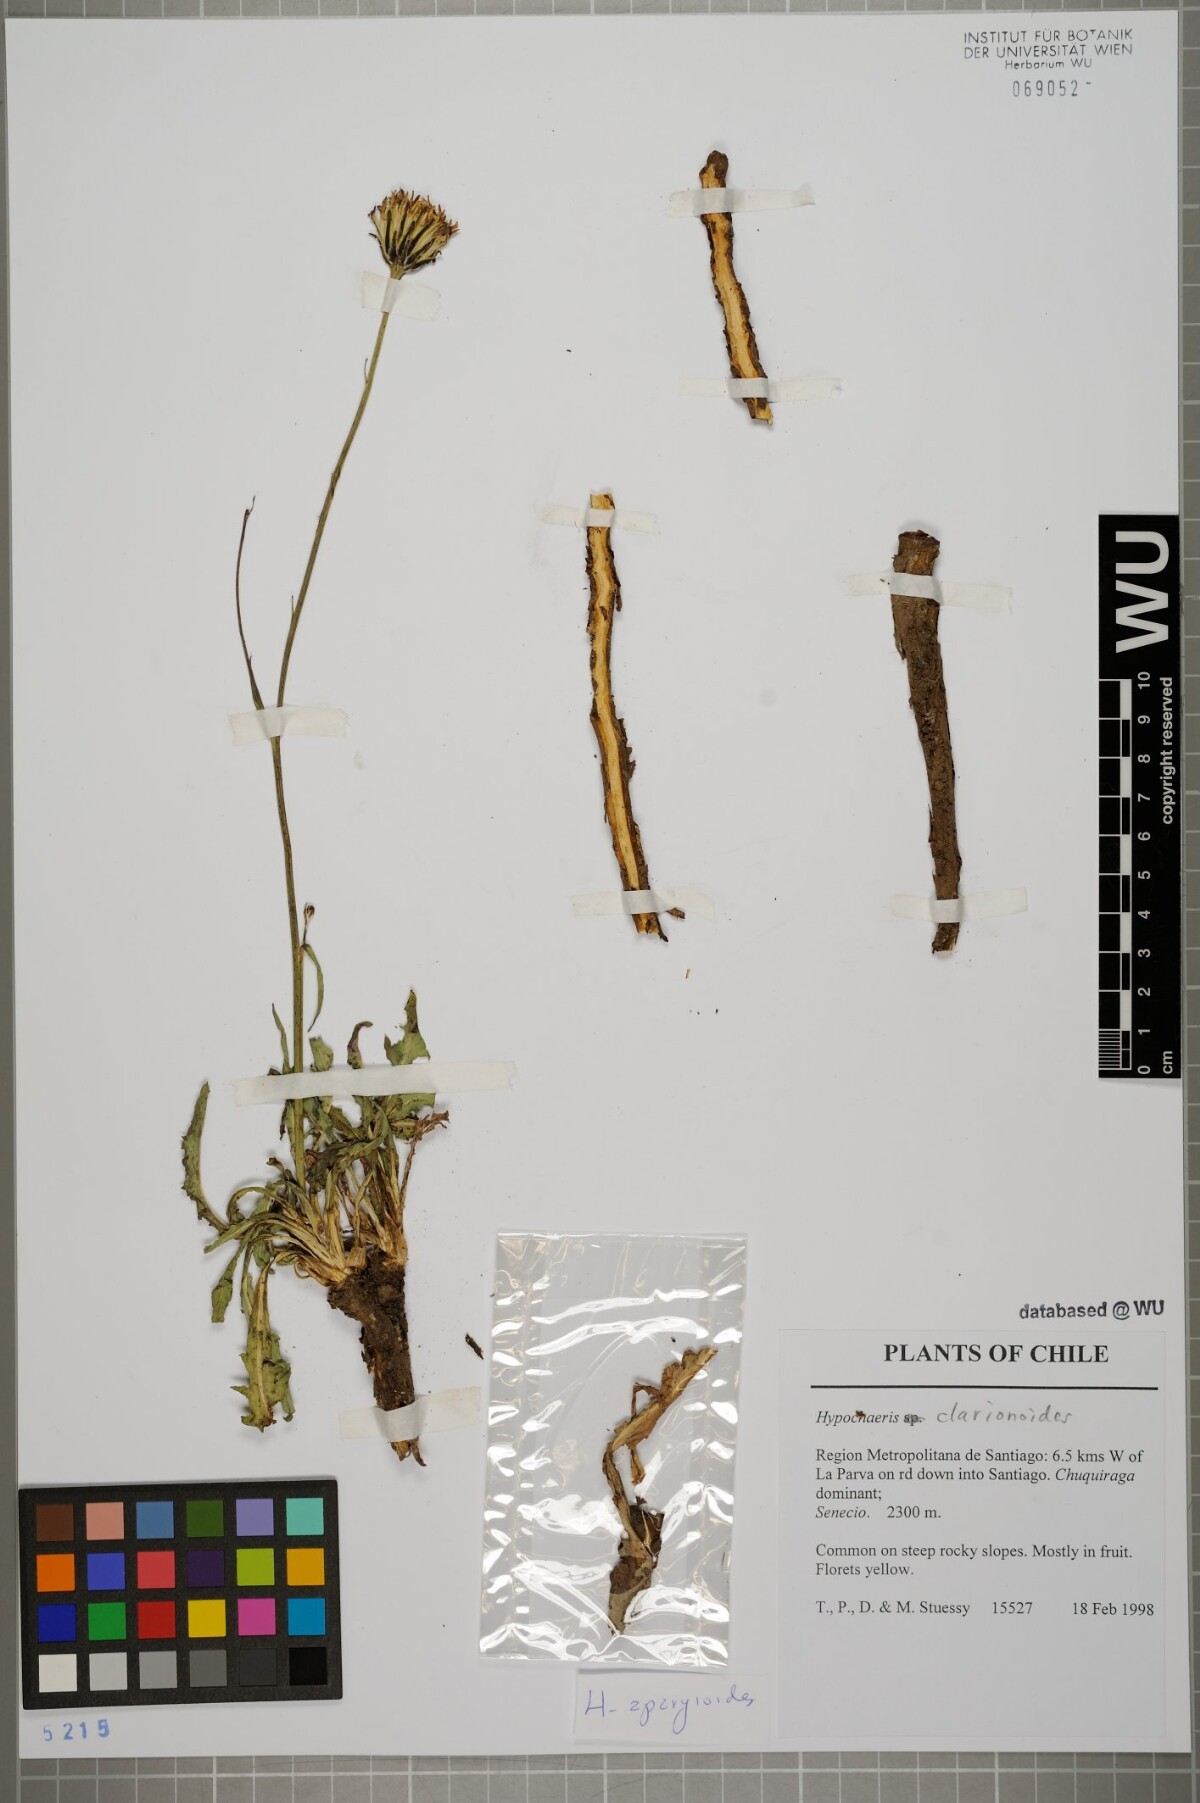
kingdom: Plantae
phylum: Tracheophyta
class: Magnoliopsida
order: Asterales
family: Asteraceae
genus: Hypochaeris
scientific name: Hypochaeris clarionoides
